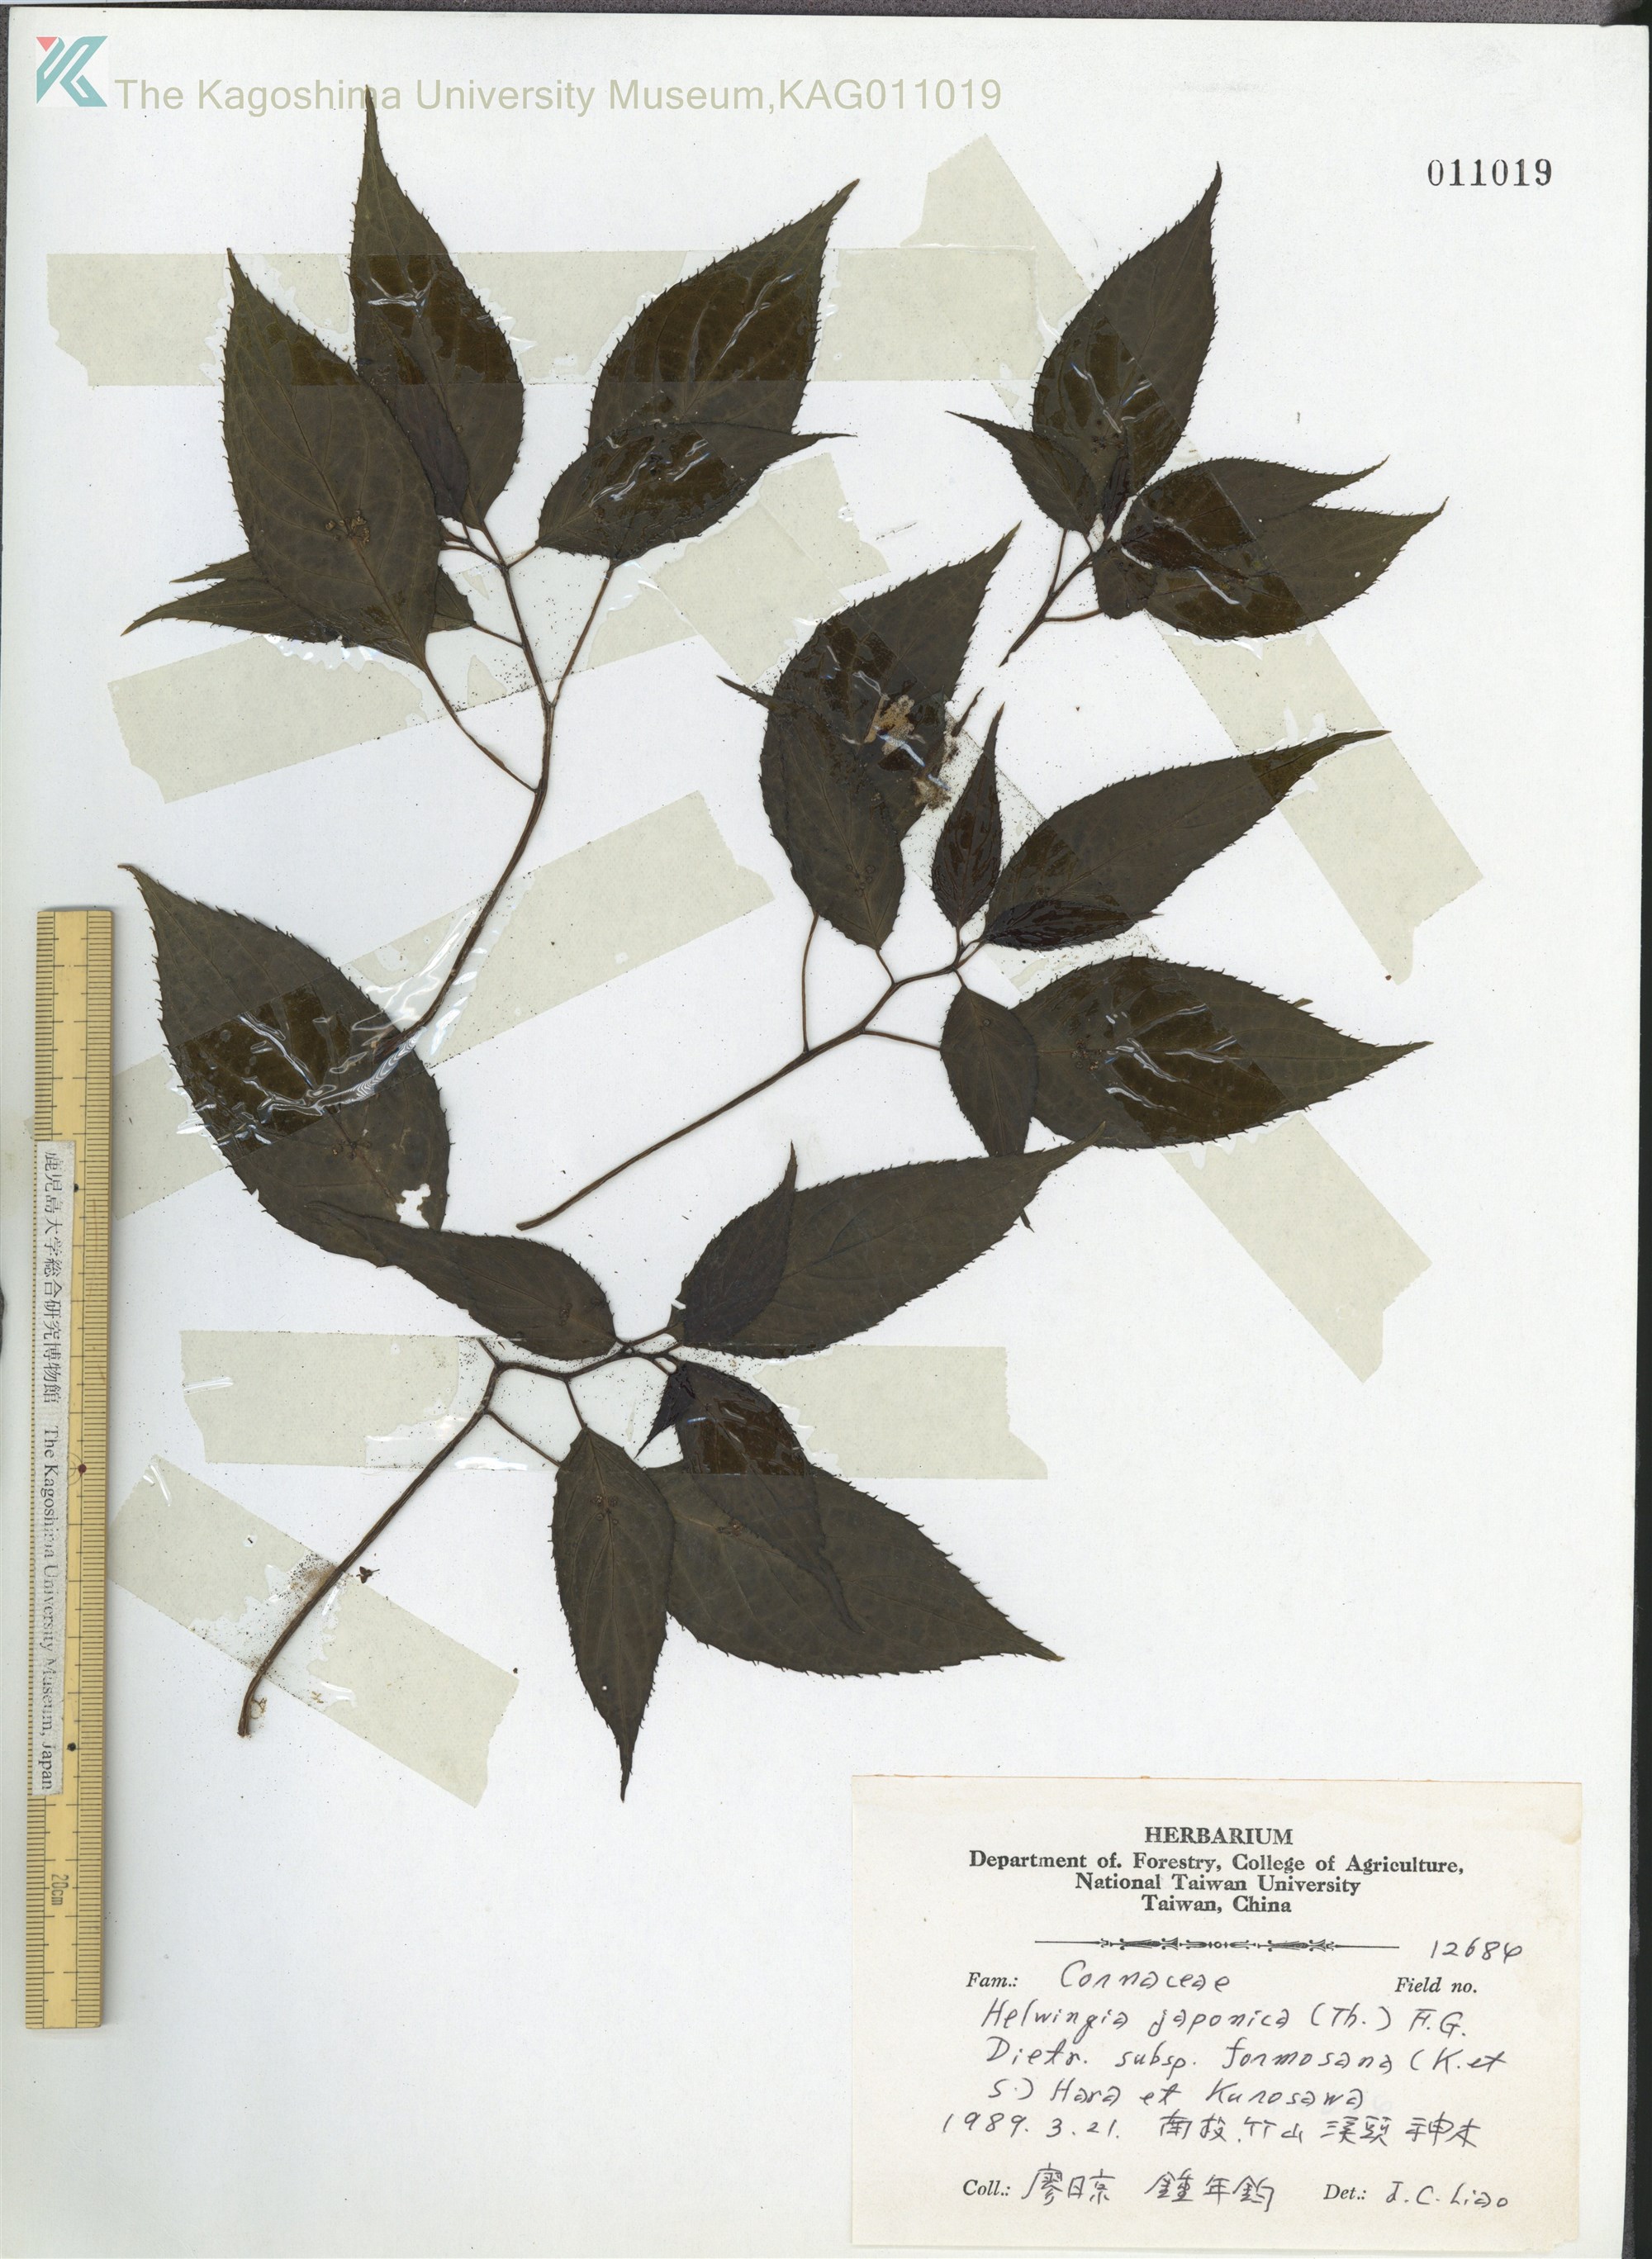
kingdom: Plantae
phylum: Tracheophyta
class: Magnoliopsida
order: Aquifoliales
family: Helwingiaceae
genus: Helwingia
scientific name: Helwingia japonica
